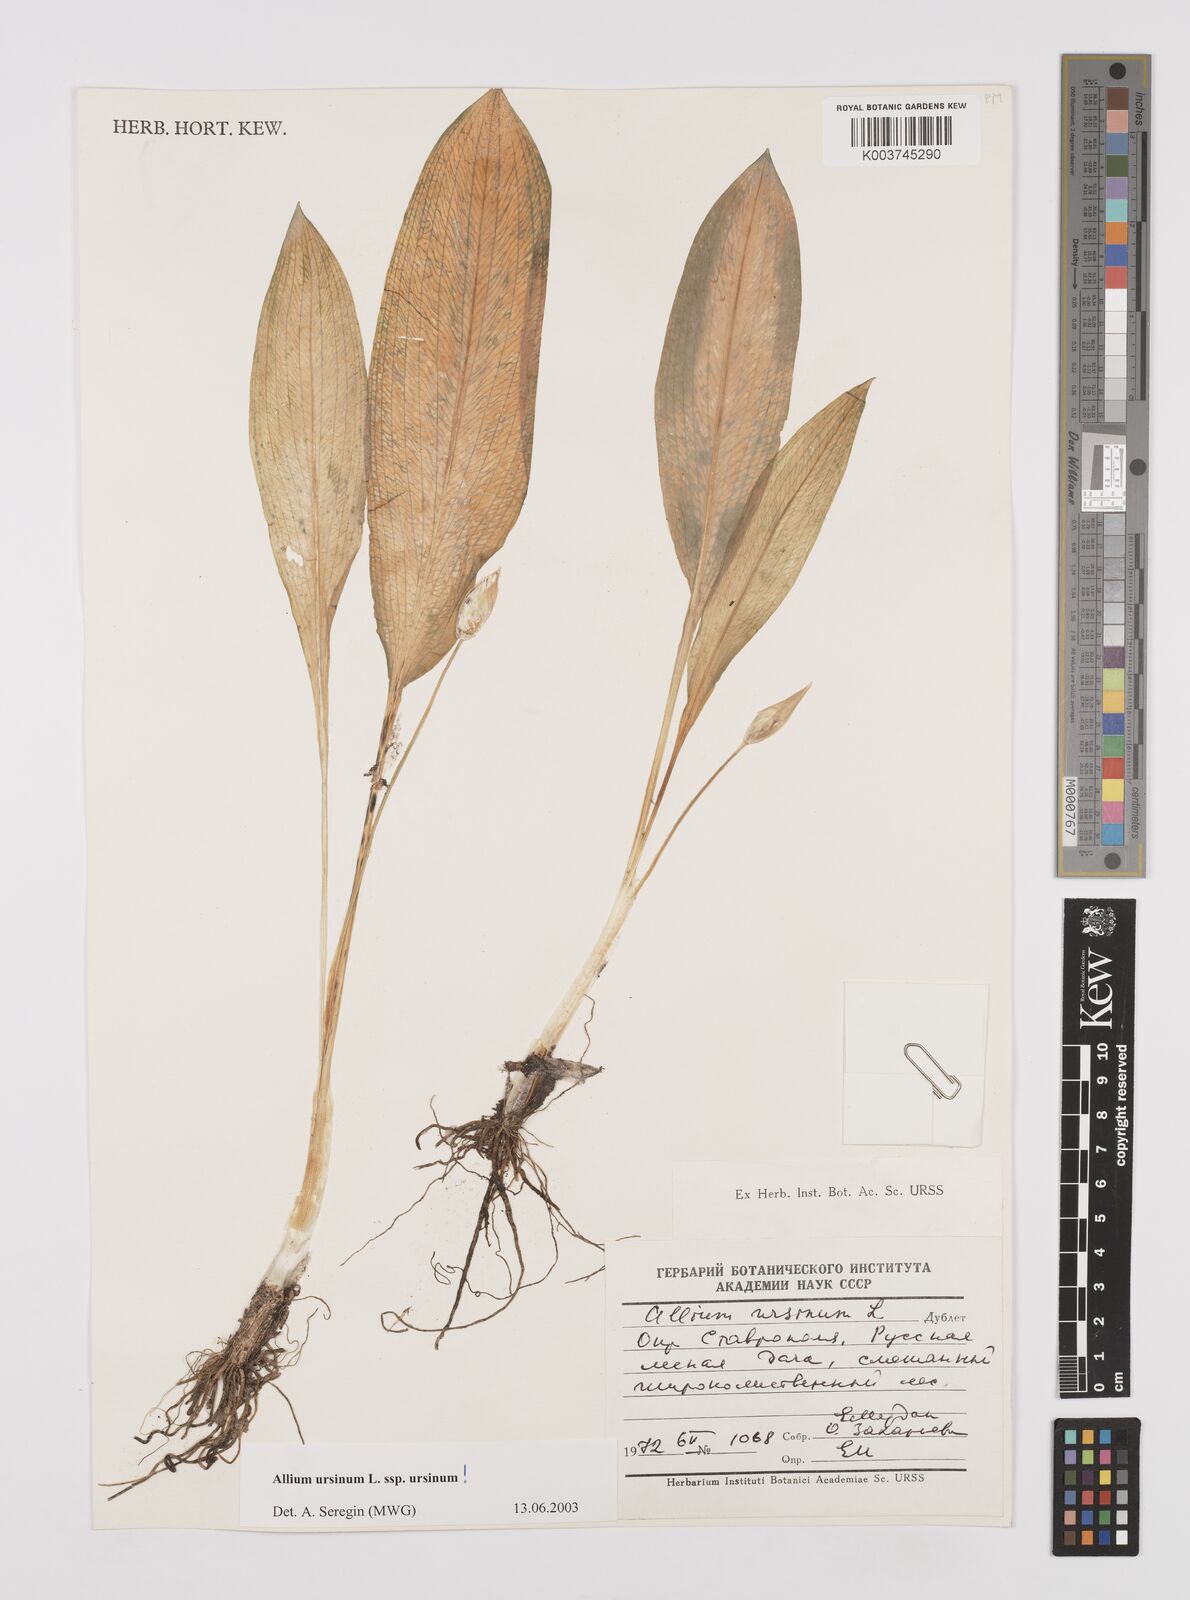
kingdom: Plantae
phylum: Tracheophyta
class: Liliopsida
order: Asparagales
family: Amaryllidaceae
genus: Allium
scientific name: Allium ursinum
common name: Ramsons
